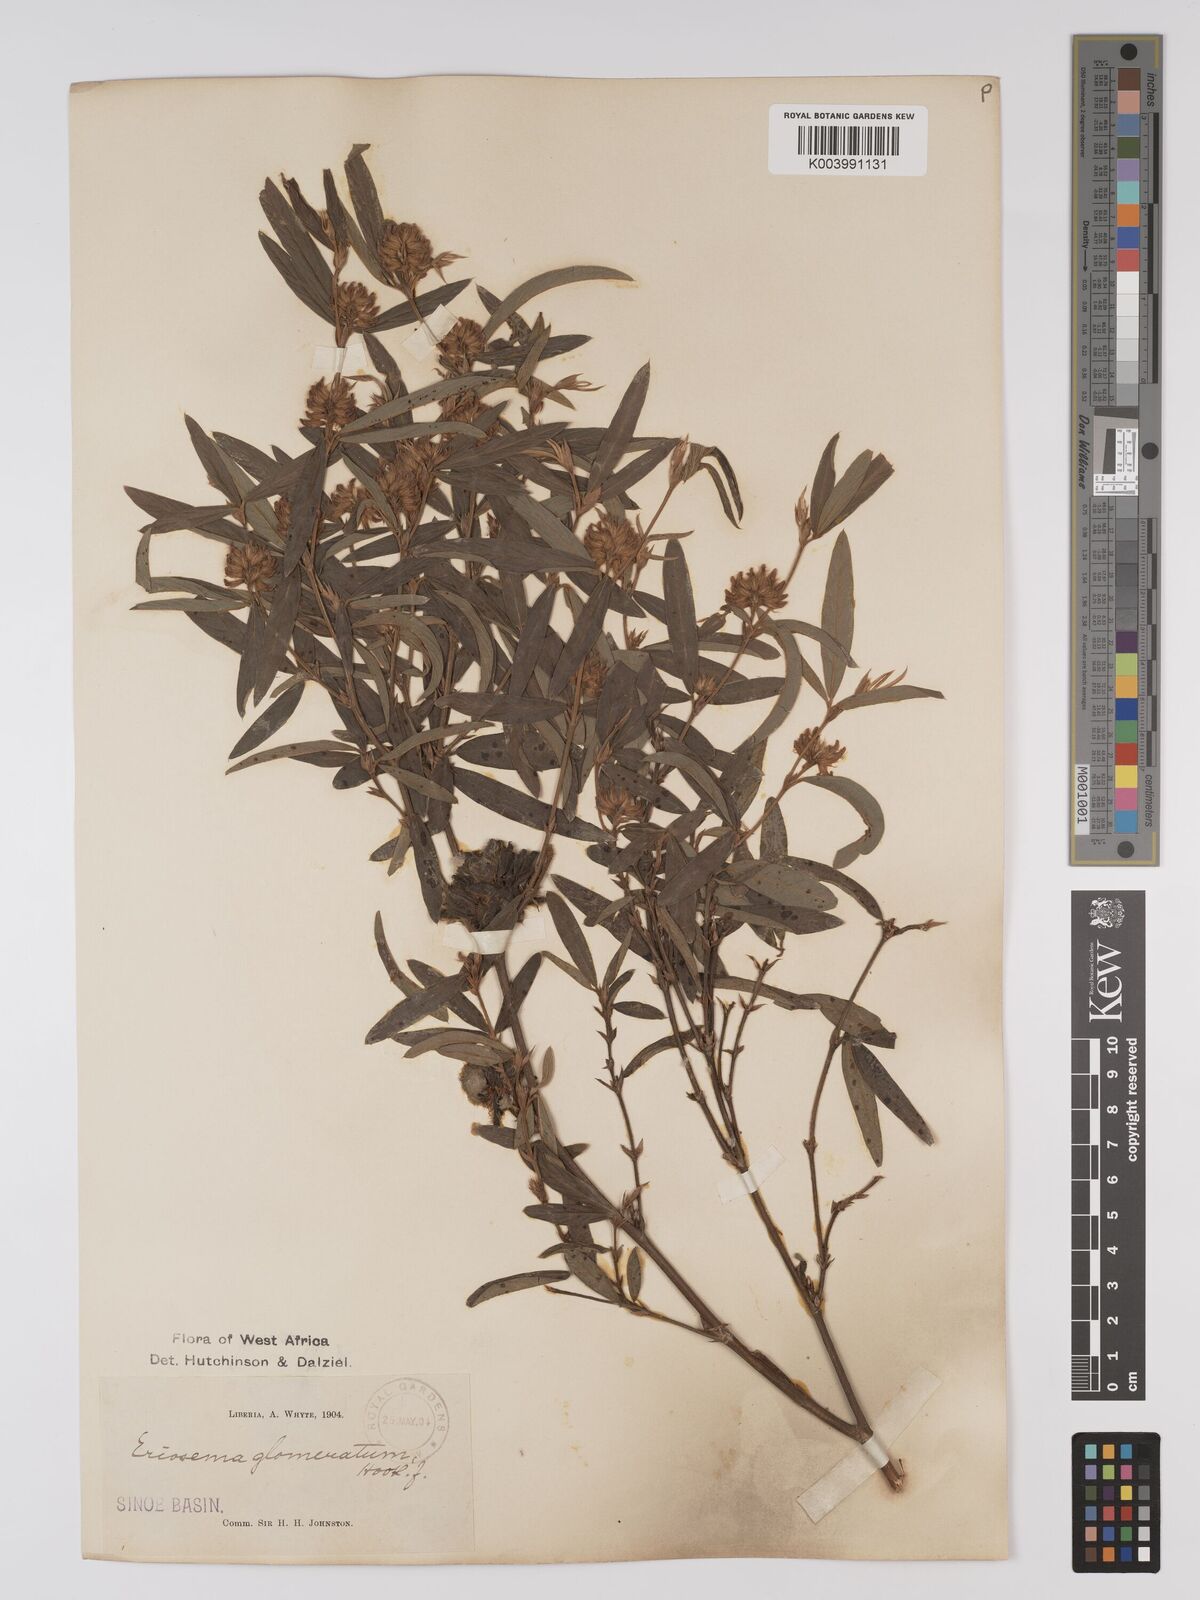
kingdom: Plantae
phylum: Tracheophyta
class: Magnoliopsida
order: Fabales
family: Fabaceae
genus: Eriosema
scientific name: Eriosema glomeratum
